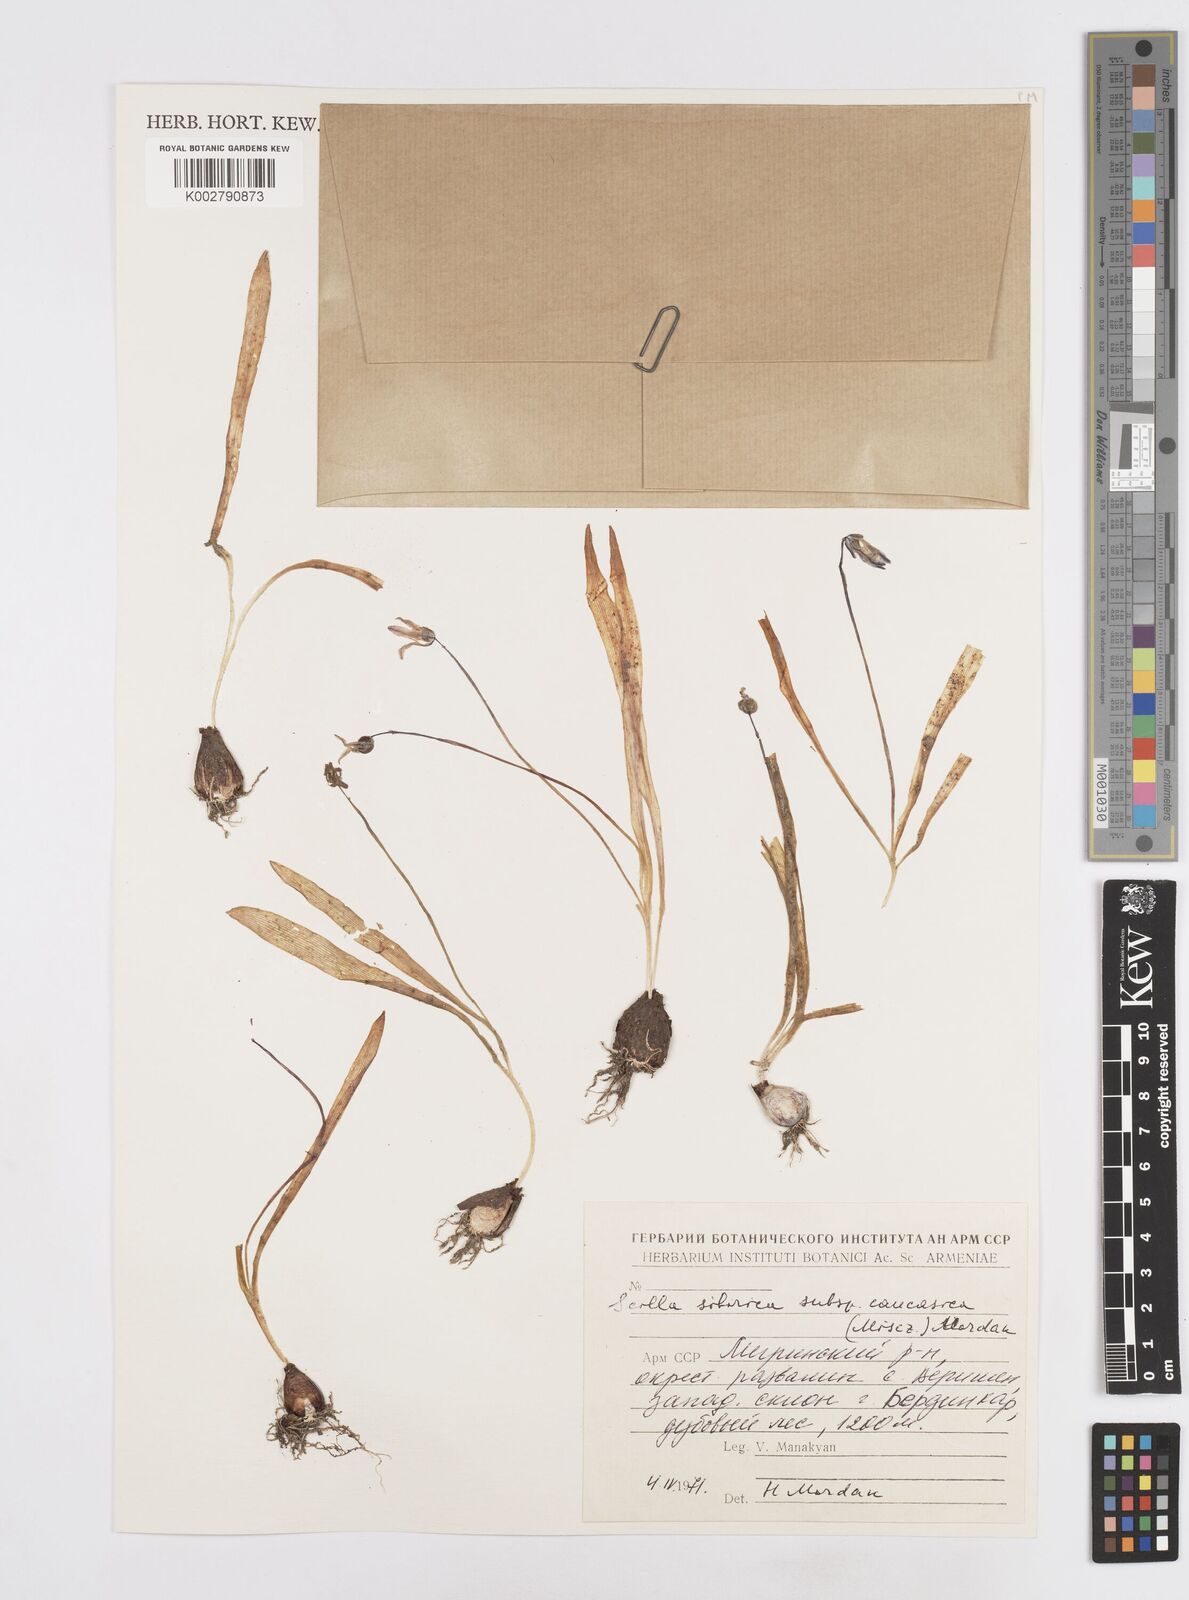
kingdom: Plantae
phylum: Tracheophyta
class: Liliopsida
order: Asparagales
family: Asparagaceae
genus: Scilla
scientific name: Scilla siberica
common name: Siberian squill
